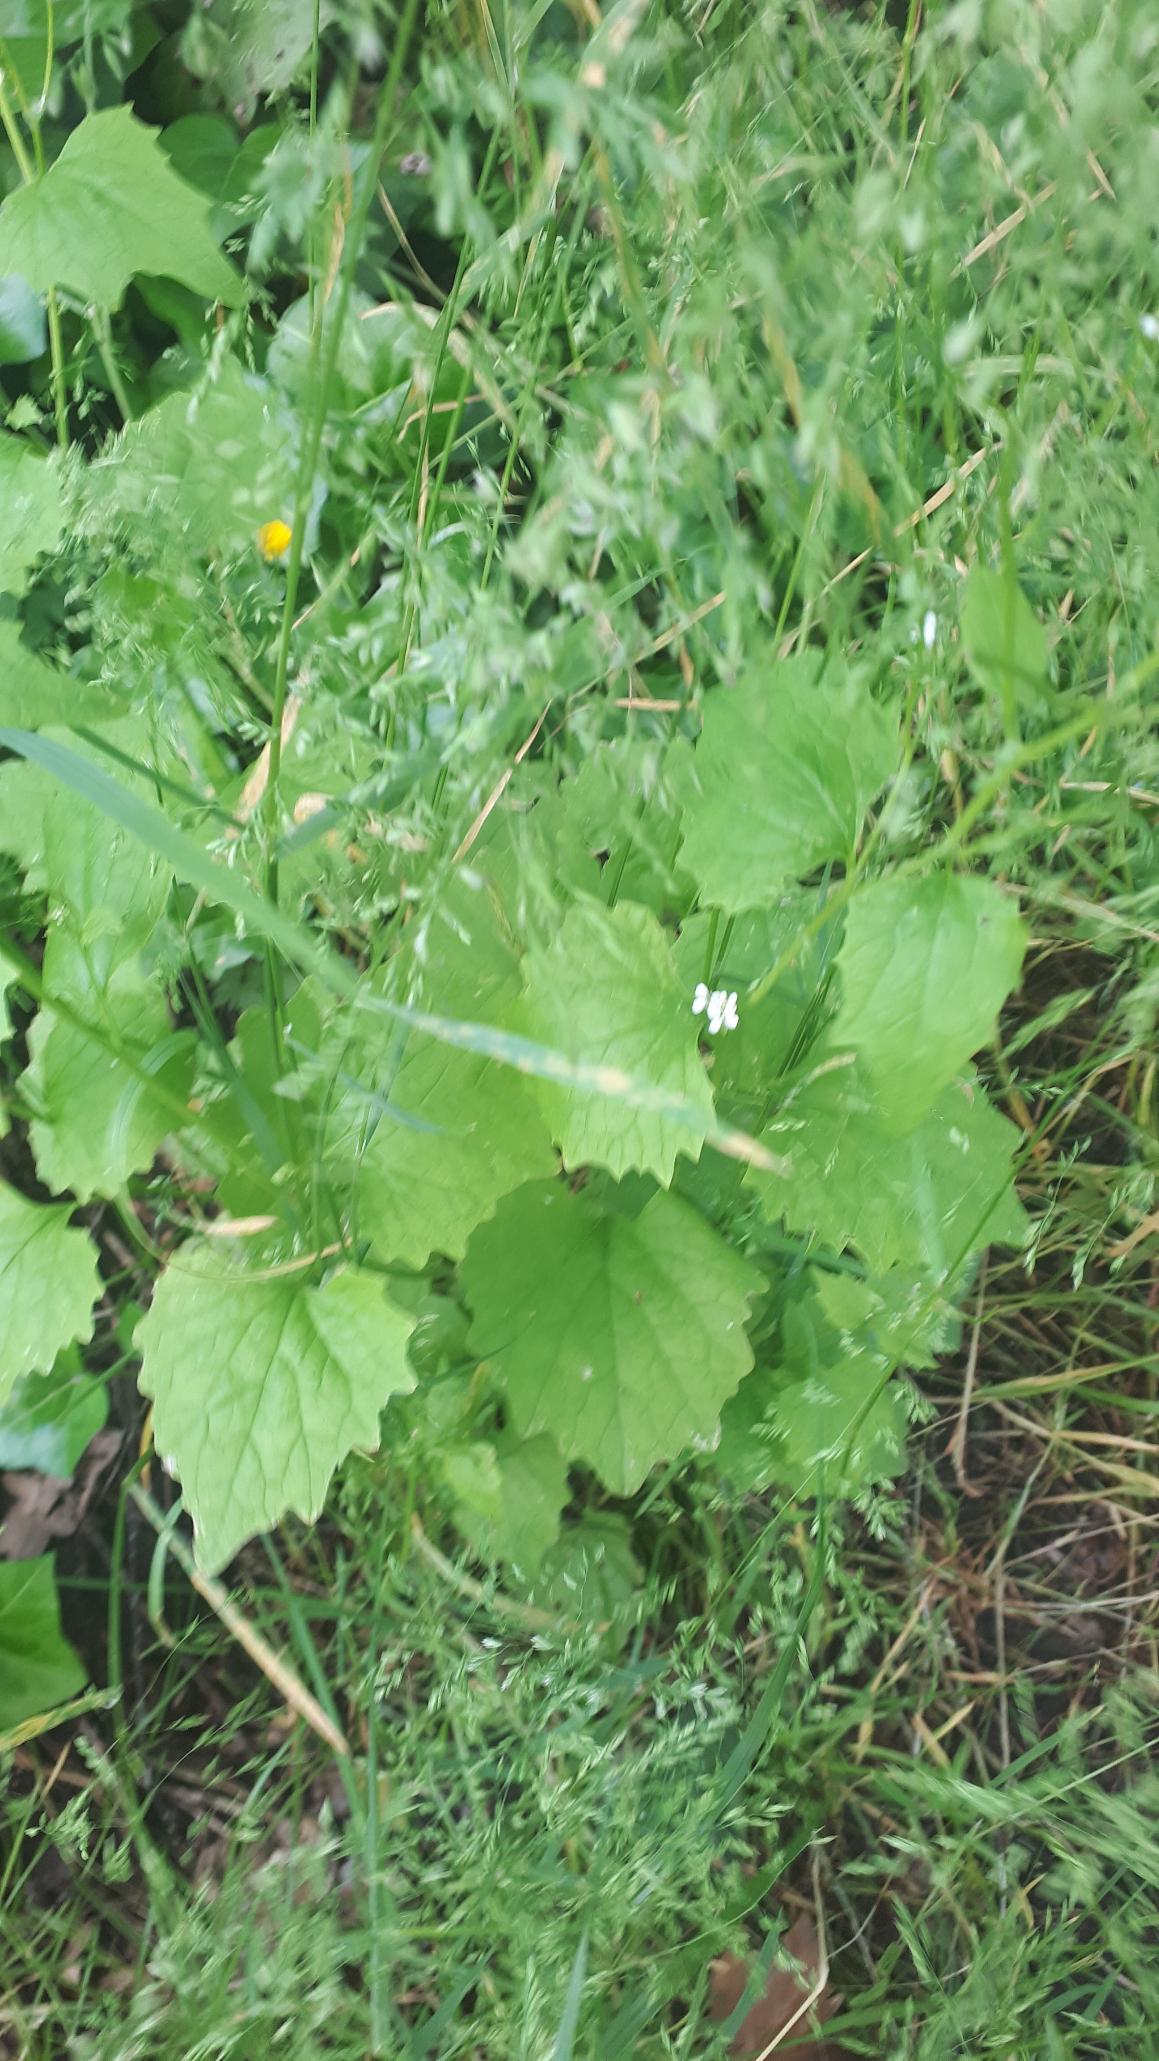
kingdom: Plantae
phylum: Tracheophyta
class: Magnoliopsida
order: Brassicales
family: Brassicaceae
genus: Alliaria
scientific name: Alliaria petiolata
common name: Løgkarse
